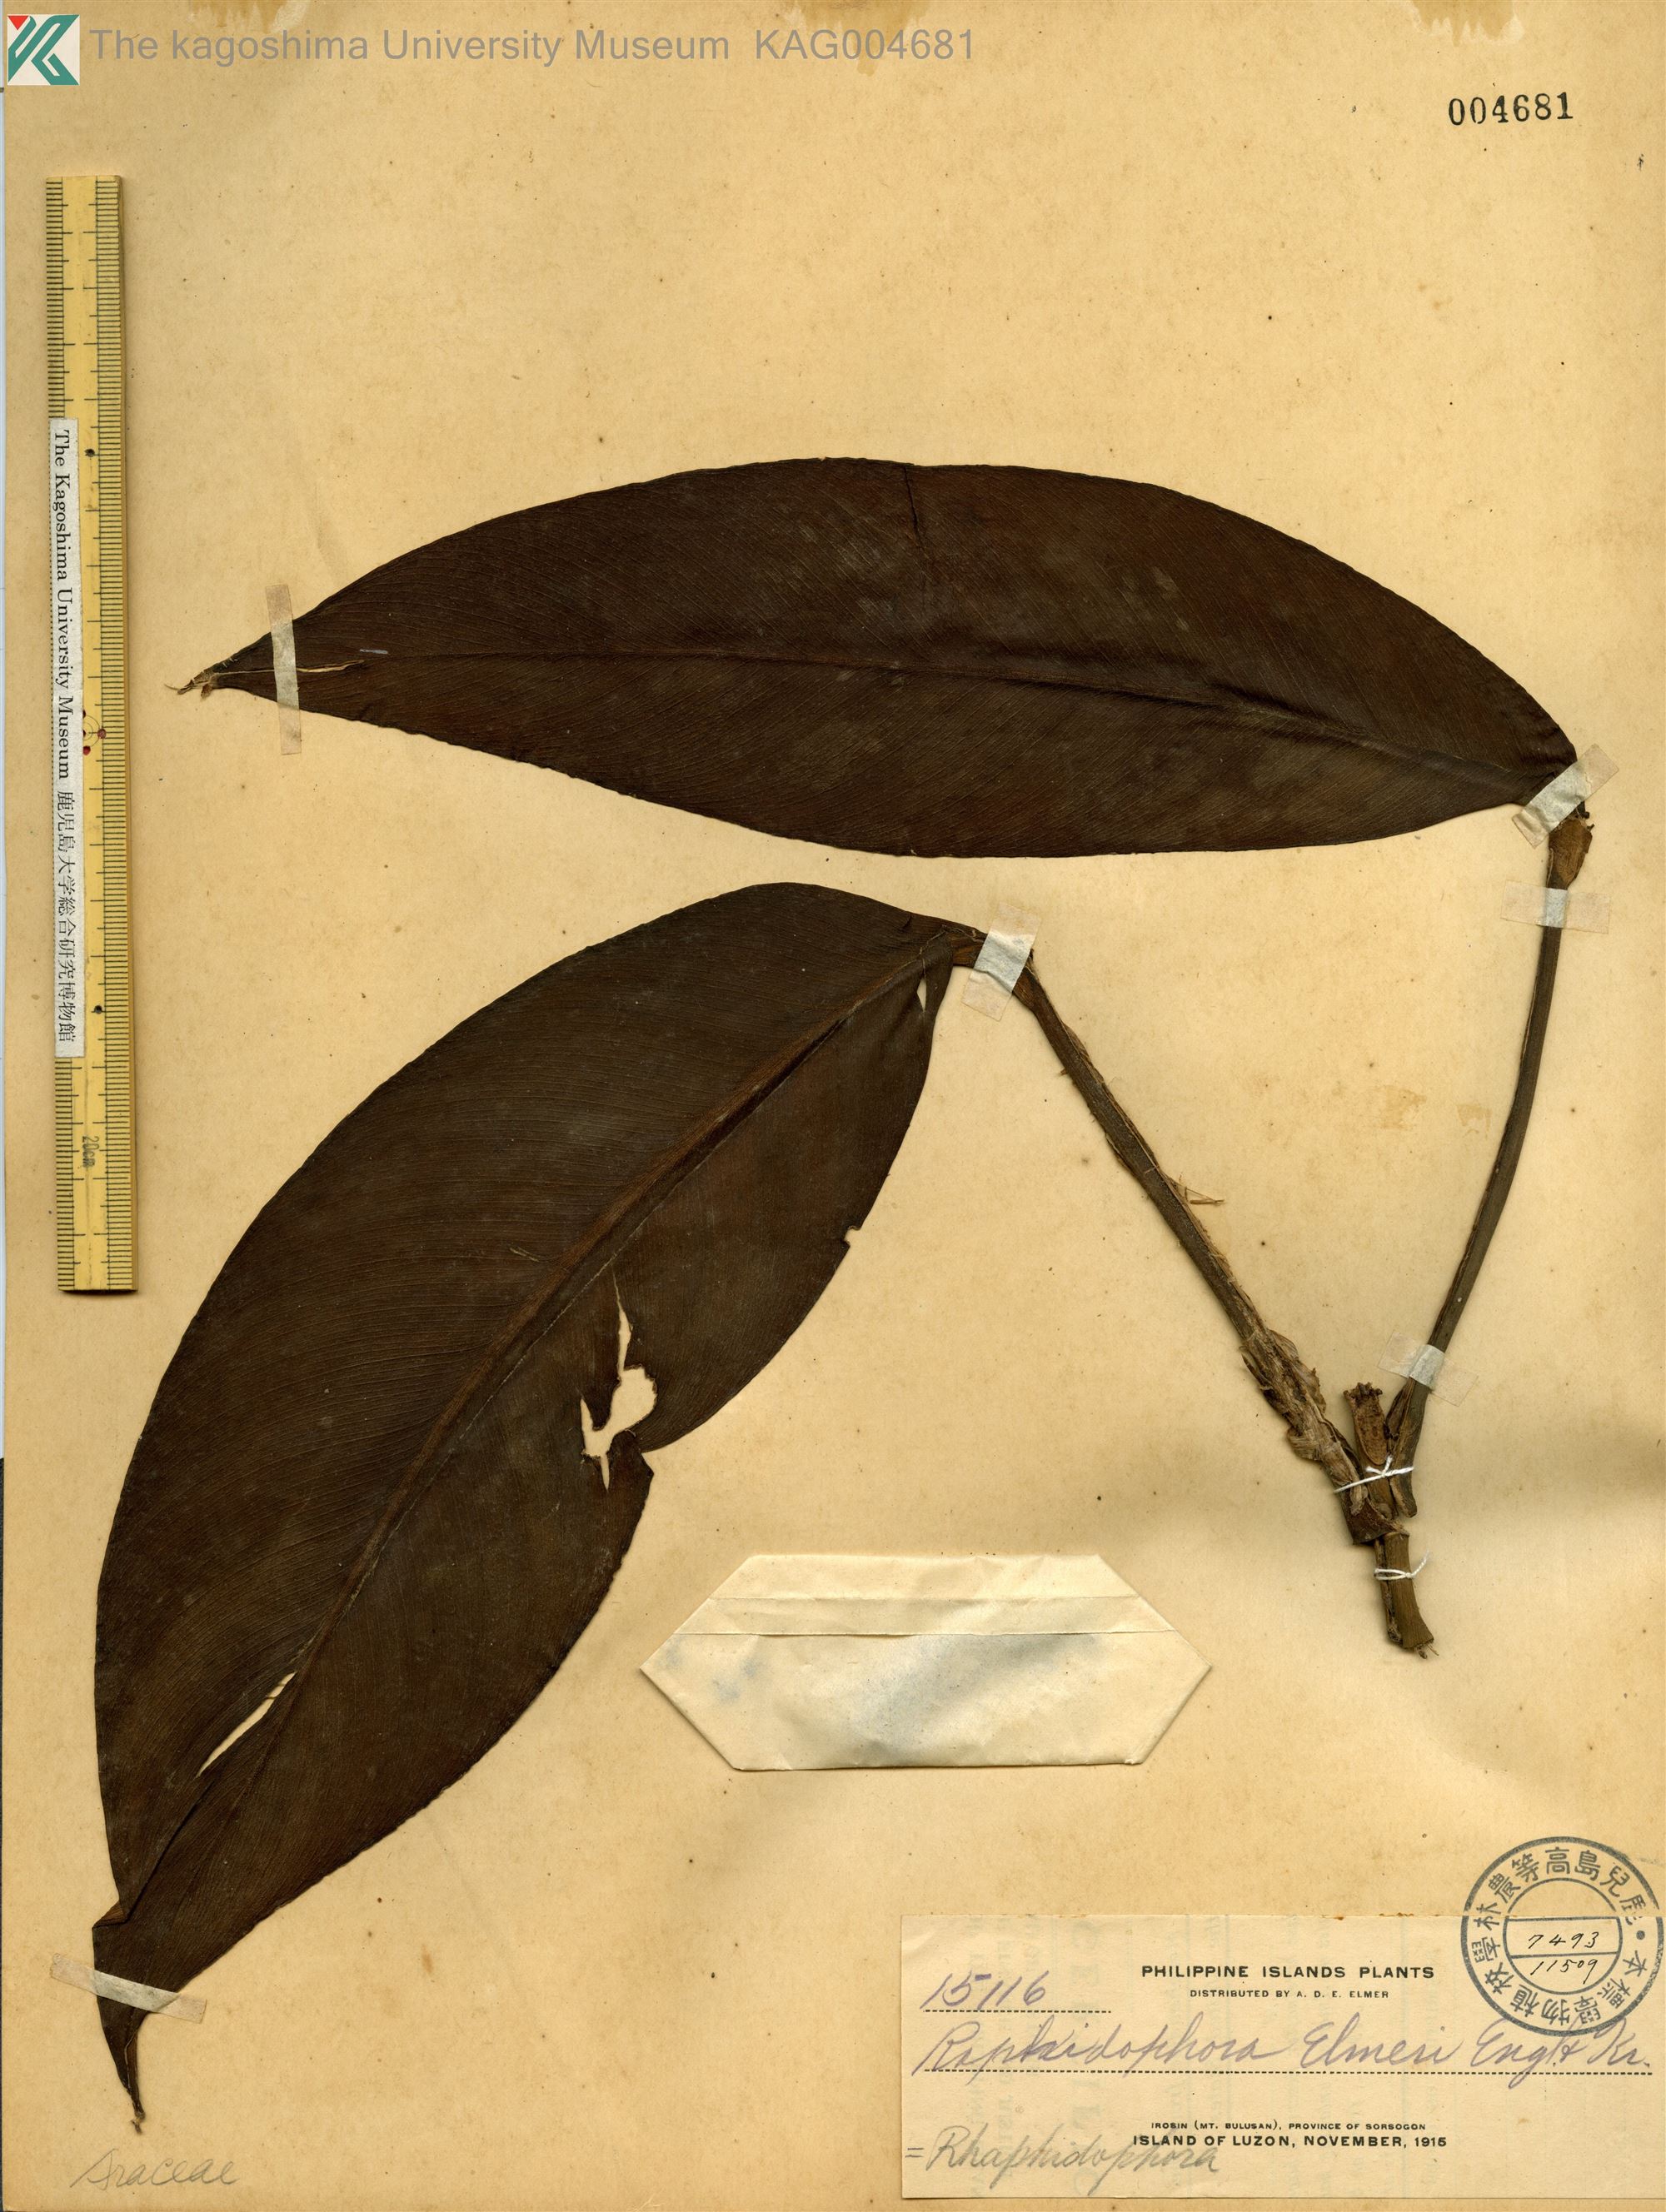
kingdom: Plantae
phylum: Tracheophyta
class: Liliopsida
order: Alismatales
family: Araceae
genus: Rhaphidophora
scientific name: Rhaphidophora elmeri
